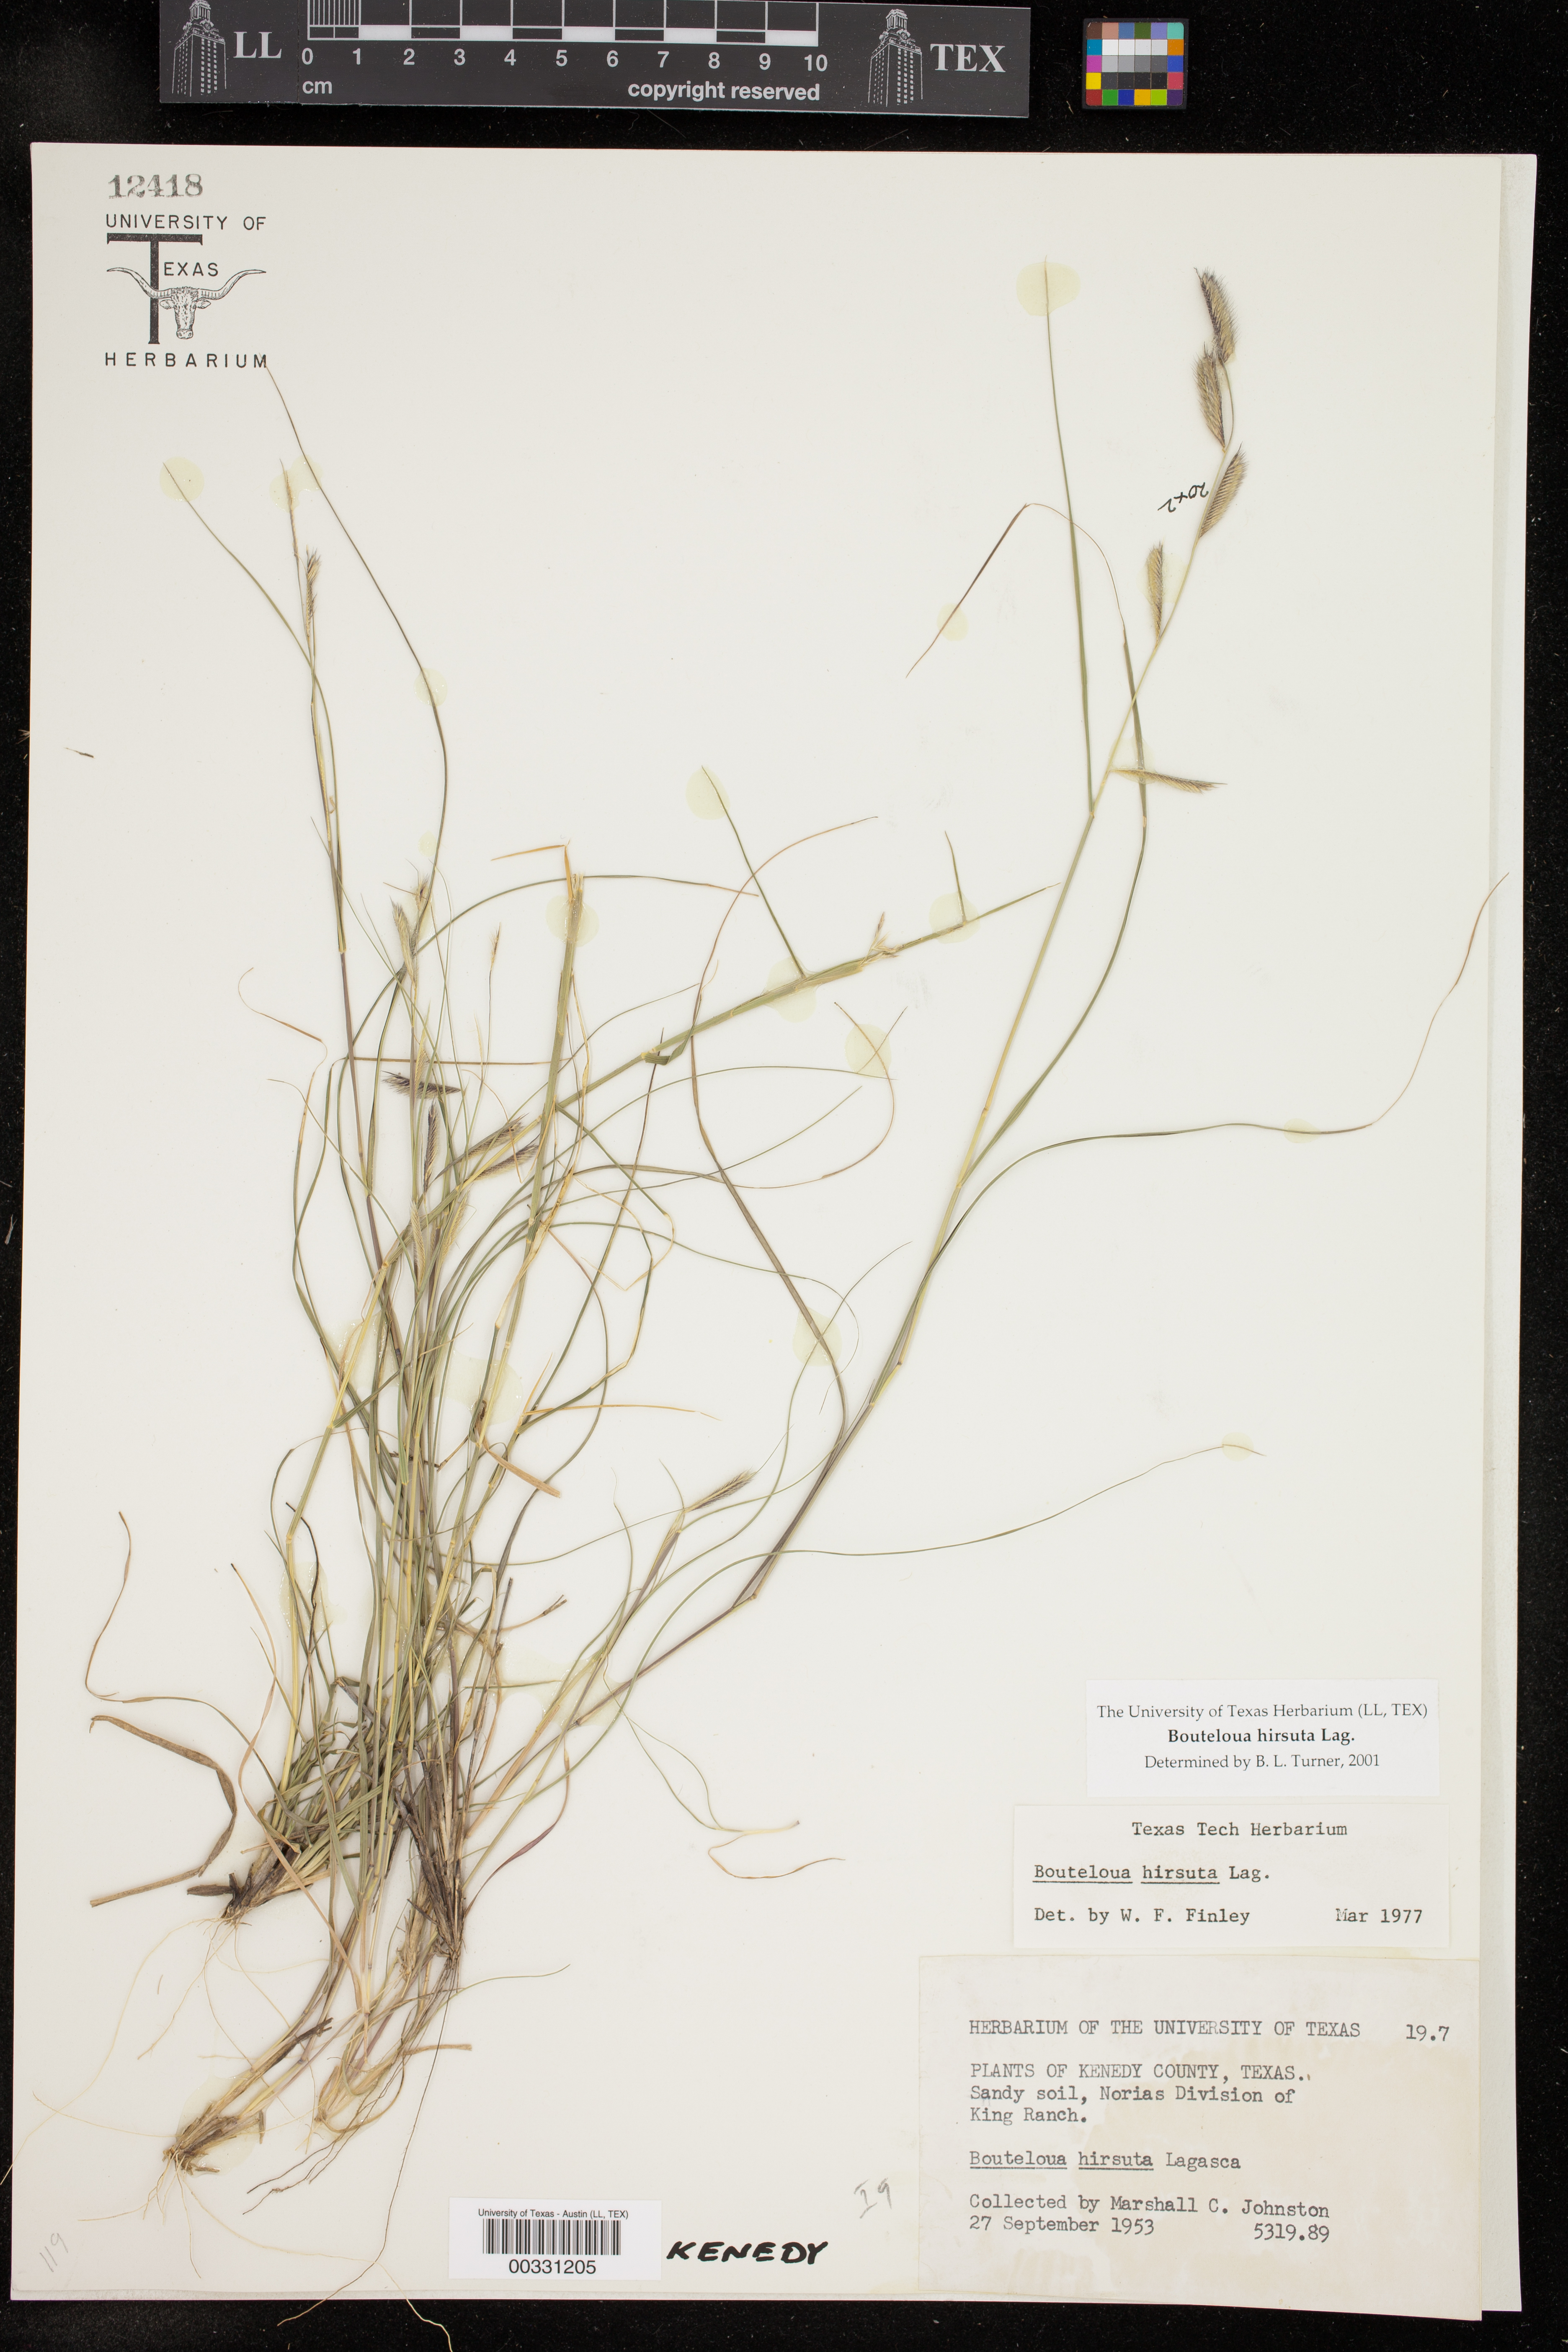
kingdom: Plantae
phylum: Tracheophyta
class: Liliopsida
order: Poales
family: Poaceae
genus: Bouteloua
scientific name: Bouteloua hirsuta
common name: Hairy grama
